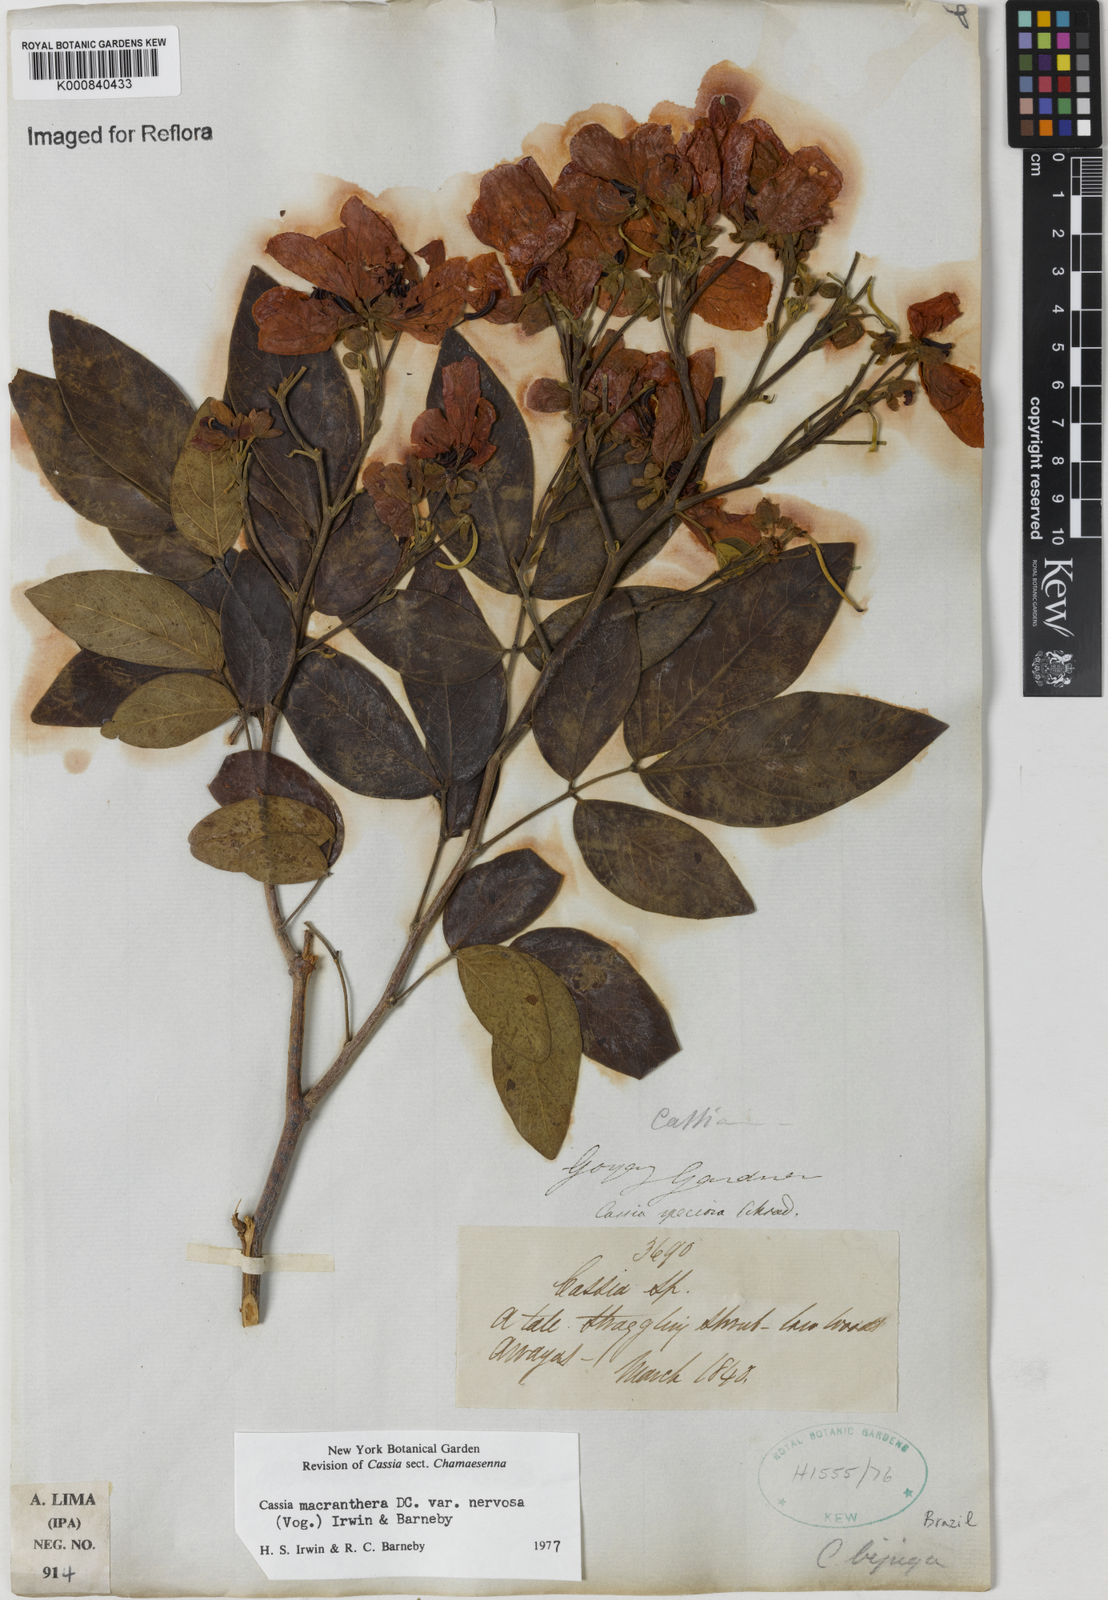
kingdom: Plantae
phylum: Tracheophyta
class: Magnoliopsida
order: Fabales
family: Fabaceae
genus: Senna
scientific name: Senna macranthera
